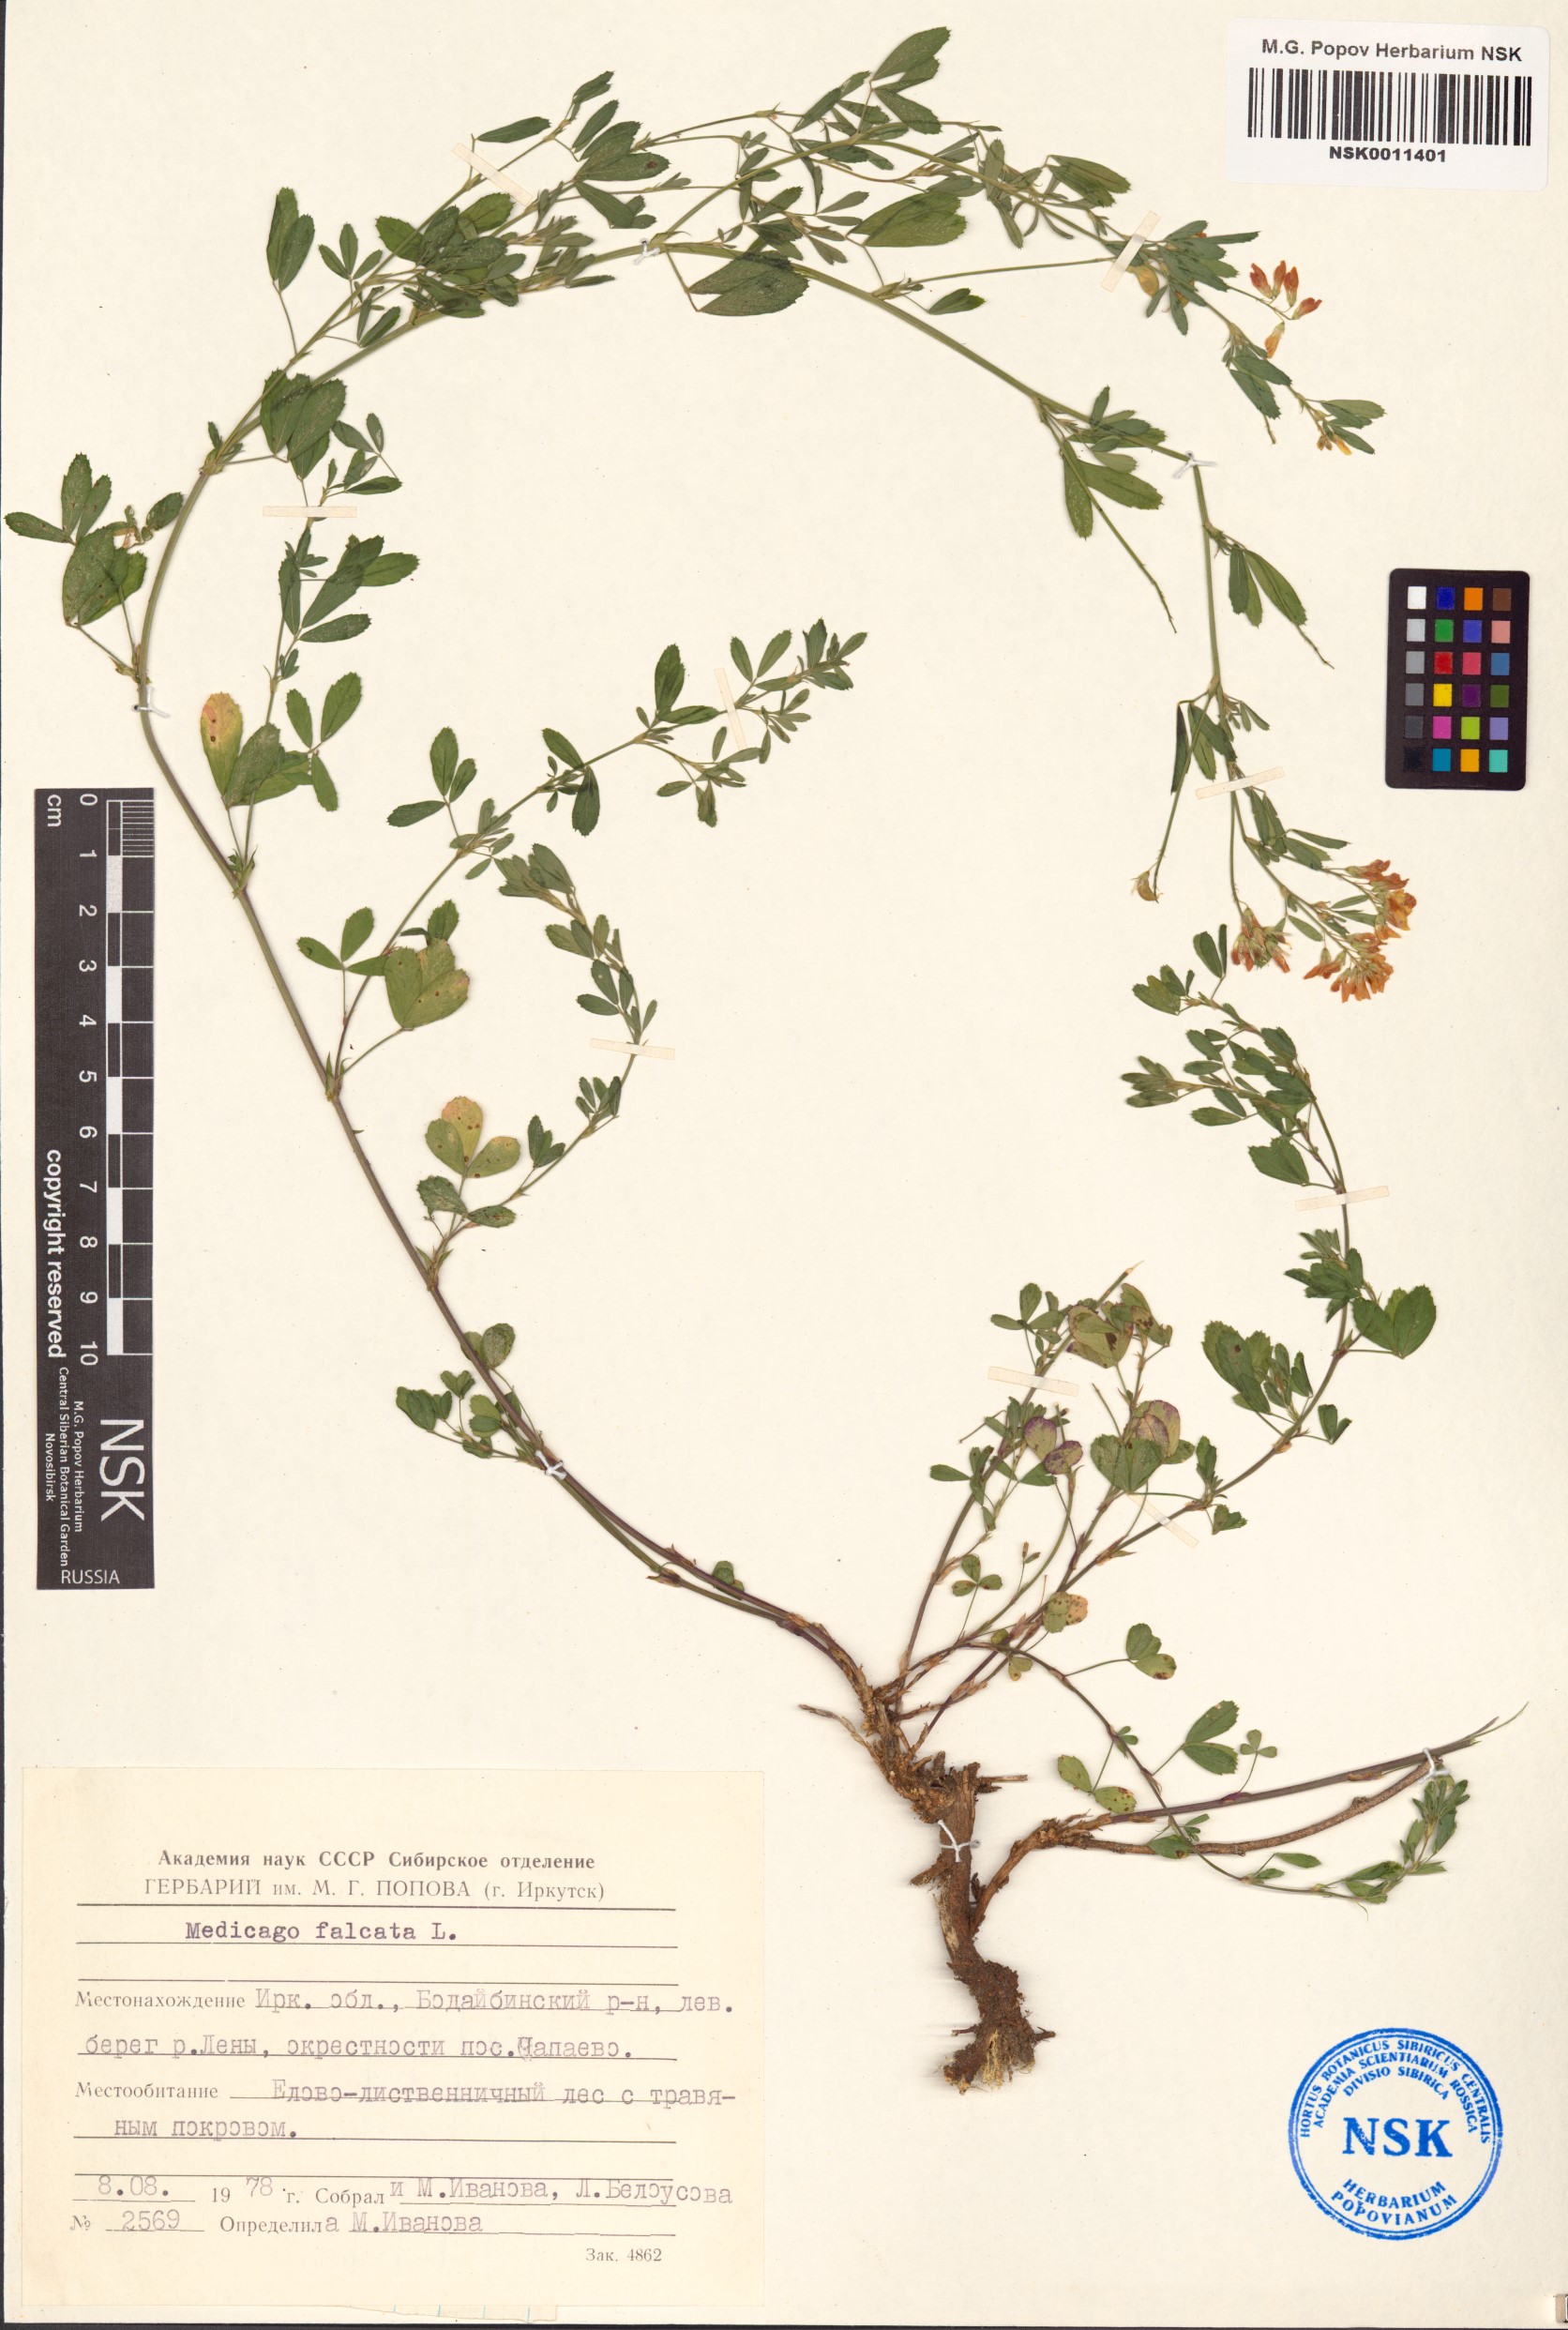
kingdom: Plantae
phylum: Tracheophyta
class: Magnoliopsida
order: Fabales
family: Fabaceae
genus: Medicago
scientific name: Medicago falcata
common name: Sickle medick
